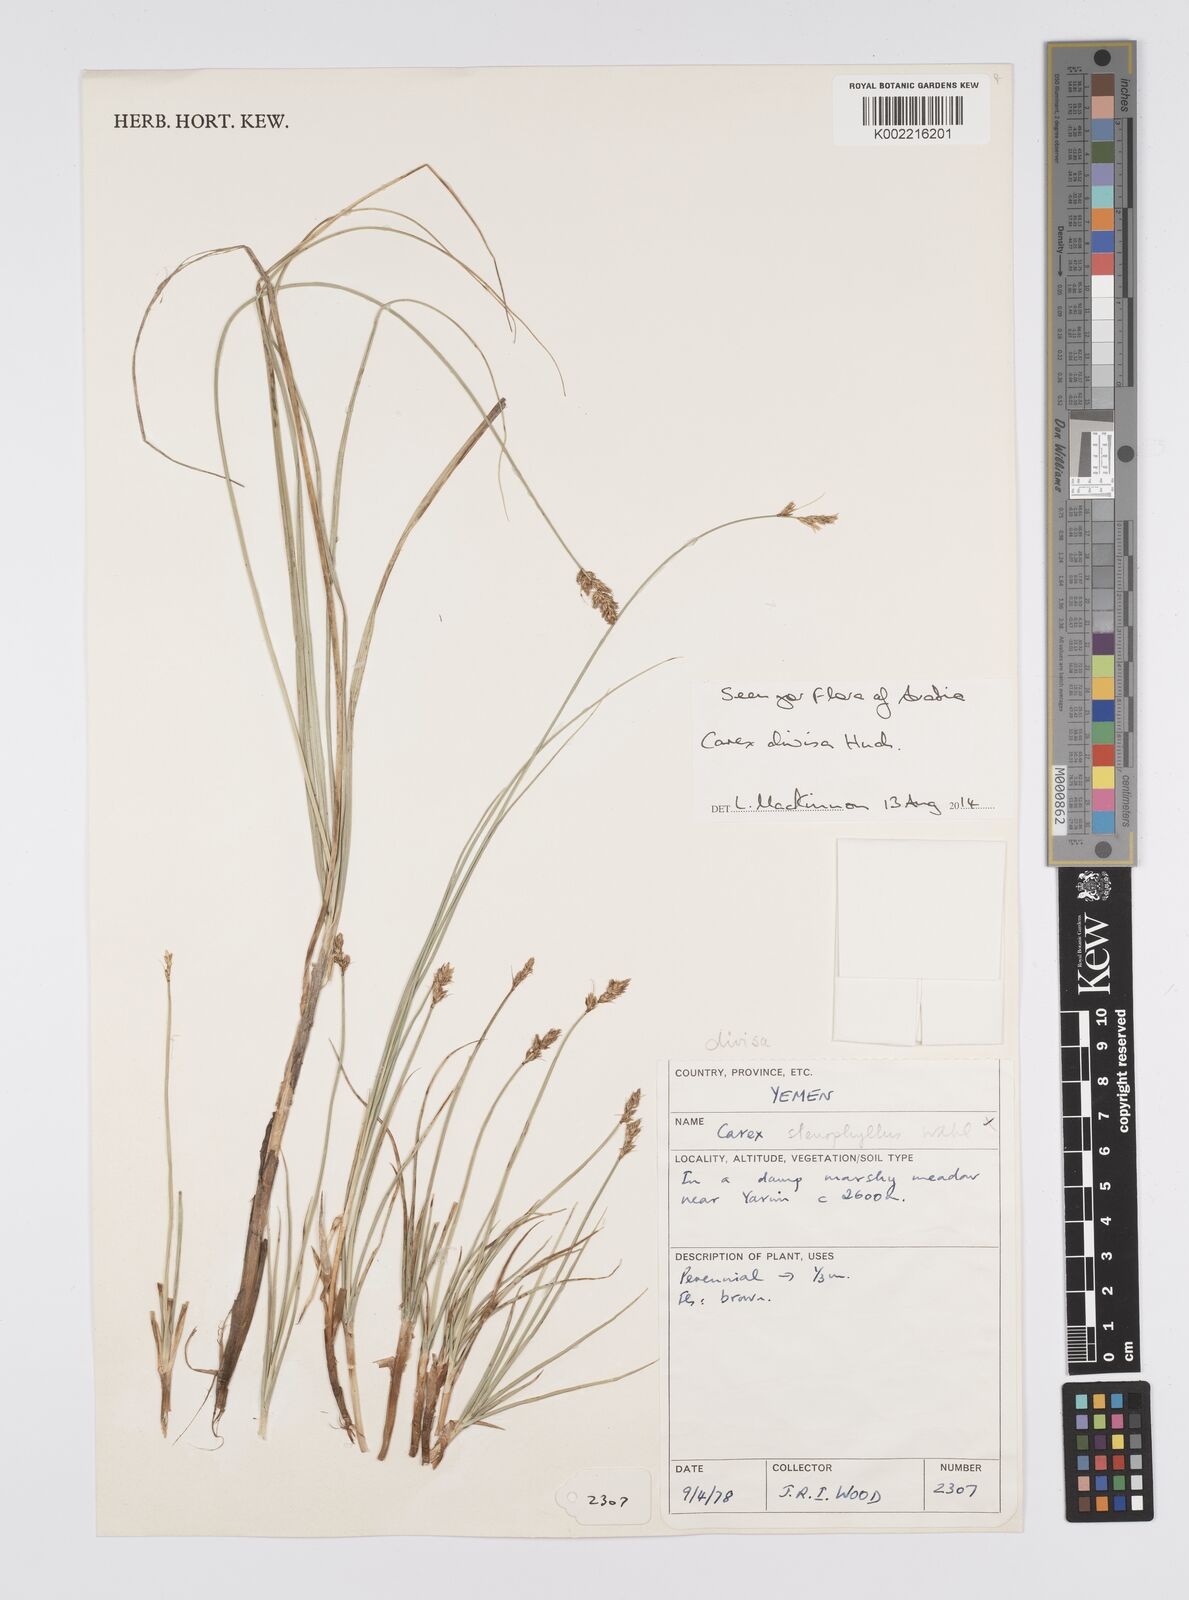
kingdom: Plantae
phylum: Tracheophyta
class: Liliopsida
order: Poales
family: Cyperaceae
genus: Carex
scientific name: Carex divisa
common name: Divided sedge
